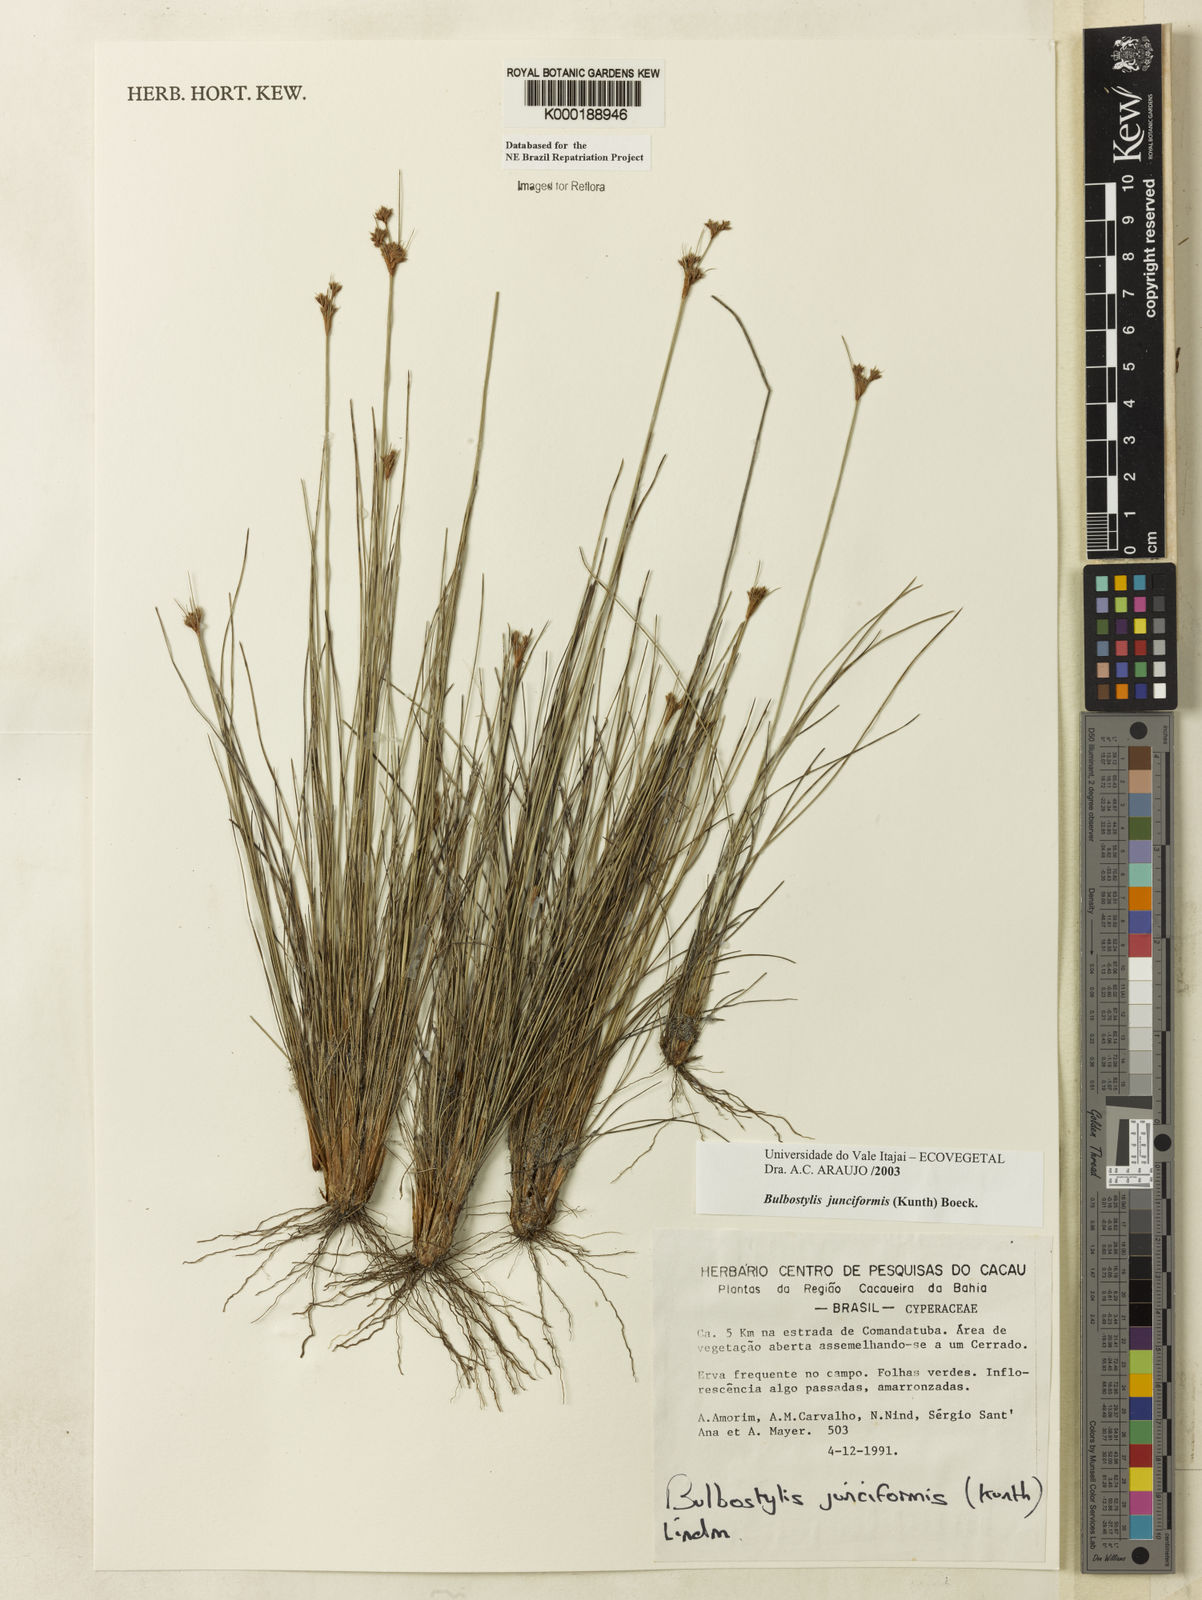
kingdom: Plantae
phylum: Tracheophyta
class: Liliopsida
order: Poales
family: Cyperaceae
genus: Bulbostylis
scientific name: Bulbostylis
